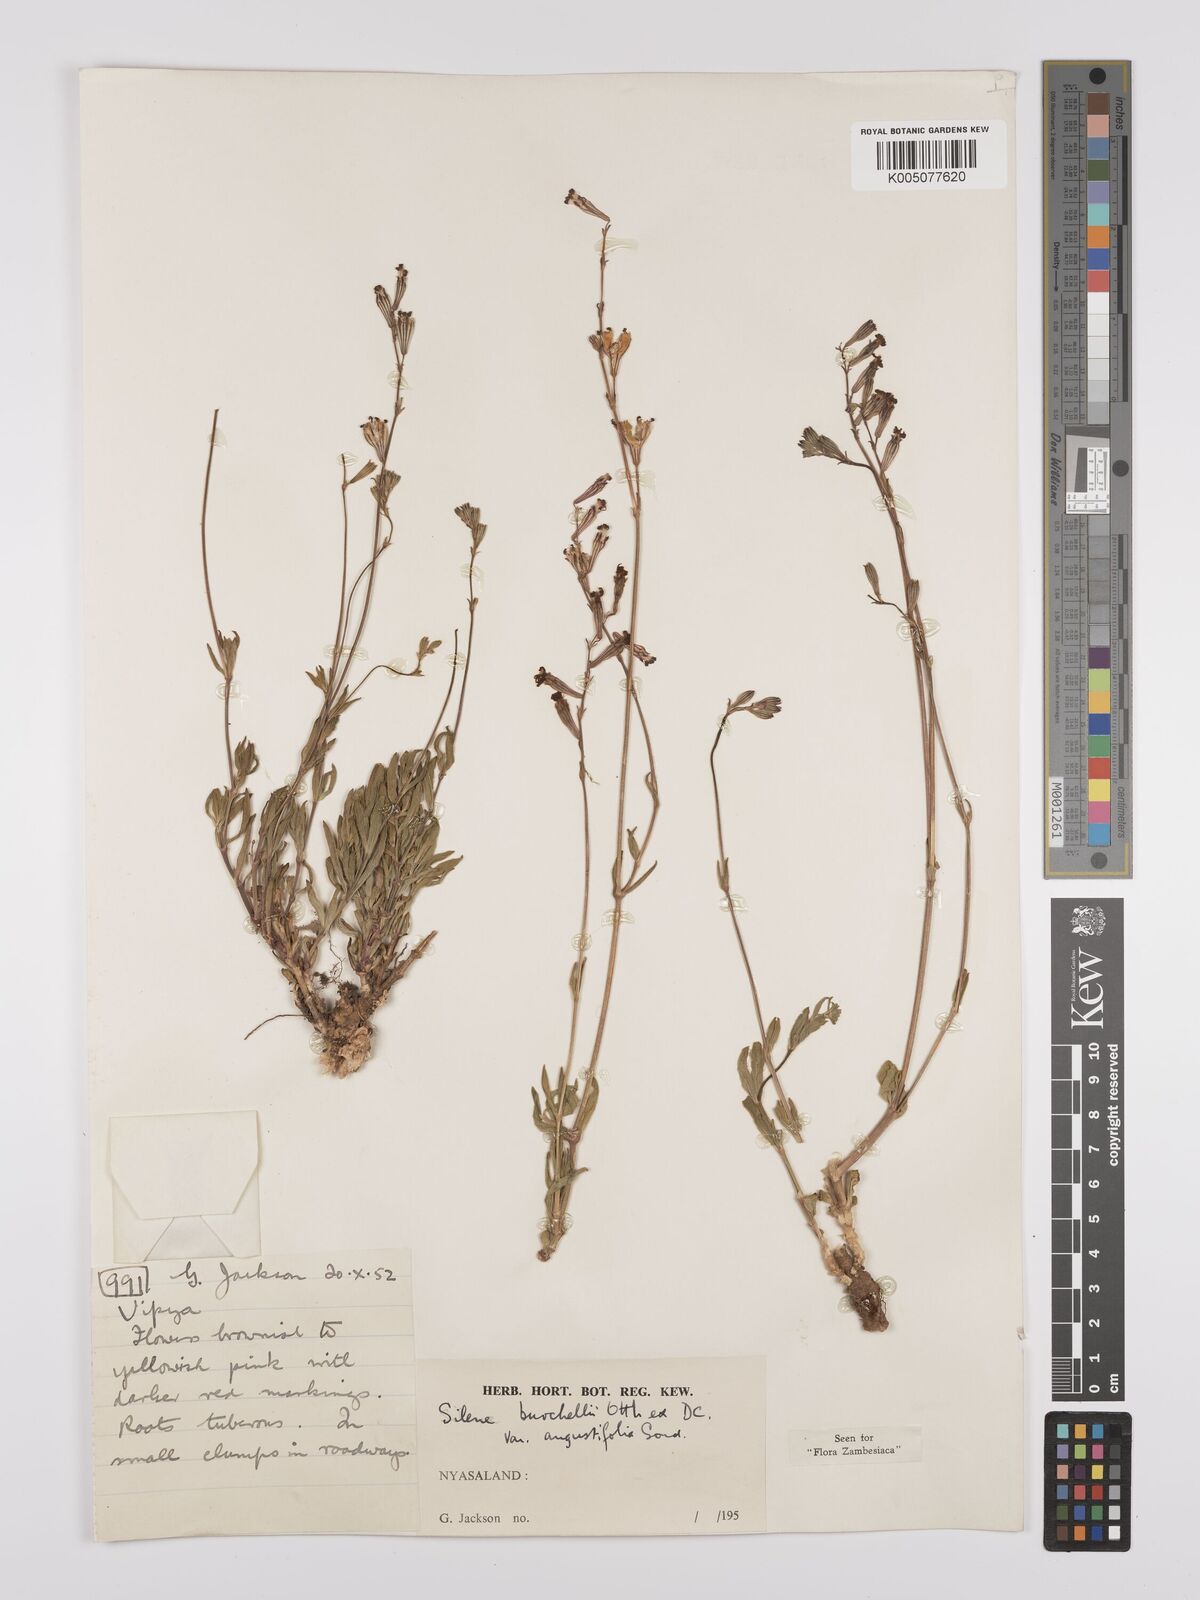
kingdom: Plantae
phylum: Tracheophyta
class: Magnoliopsida
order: Caryophyllales
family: Caryophyllaceae
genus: Silene
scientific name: Silene burchellii
